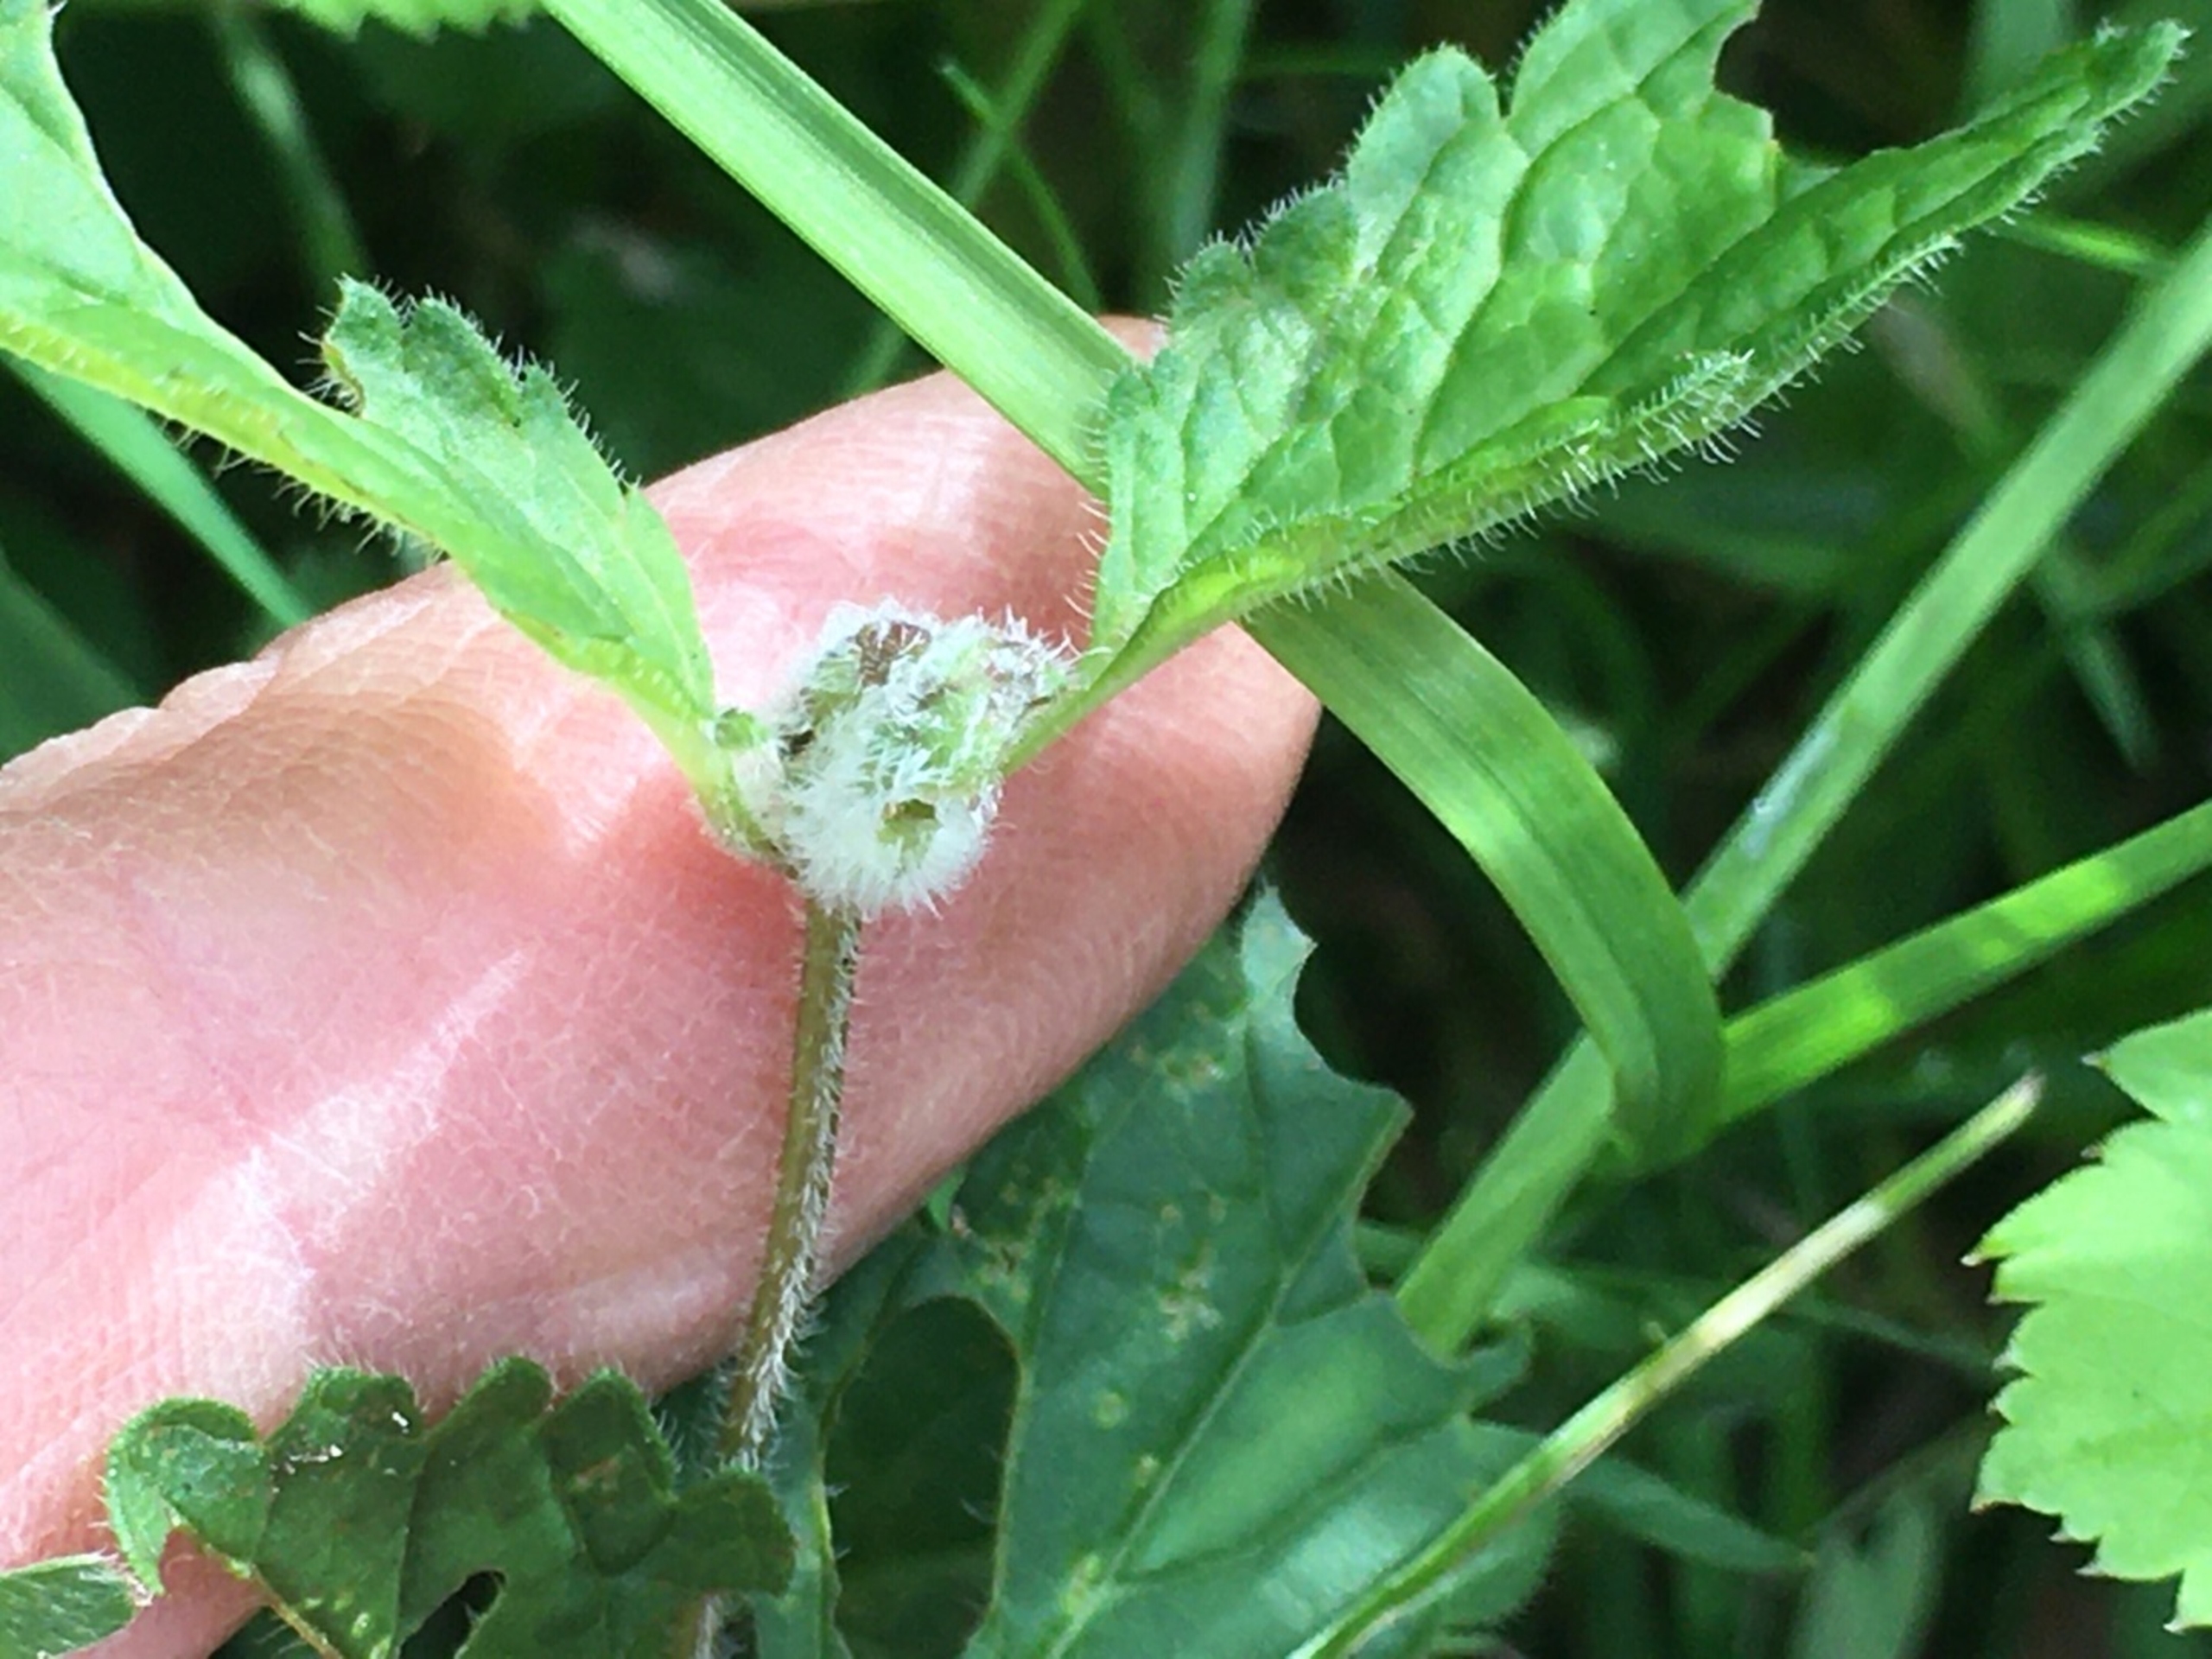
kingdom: Animalia
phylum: Arthropoda
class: Insecta
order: Diptera
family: Cecidomyiidae
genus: Jaapiella
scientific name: Jaapiella veronicae
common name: Ærenprisgalmyg
